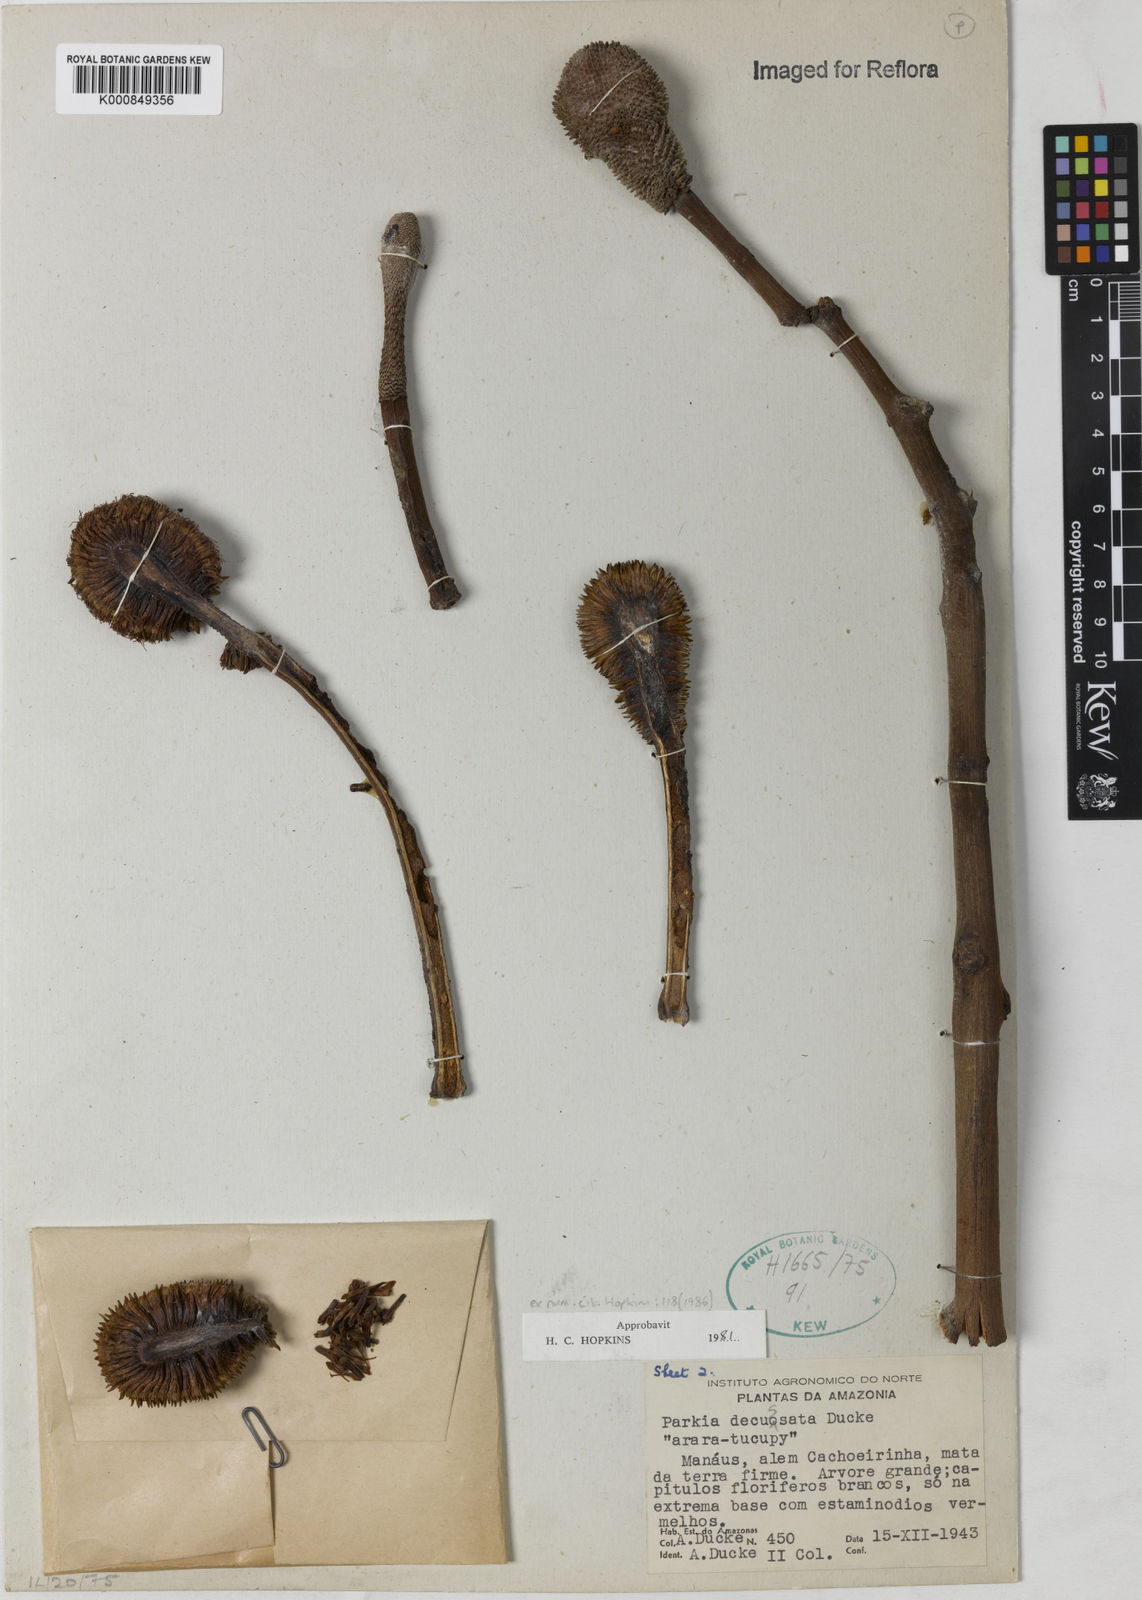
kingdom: Plantae
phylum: Tracheophyta
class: Magnoliopsida
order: Fabales
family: Fabaceae
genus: Parkia
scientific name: Parkia decussata
